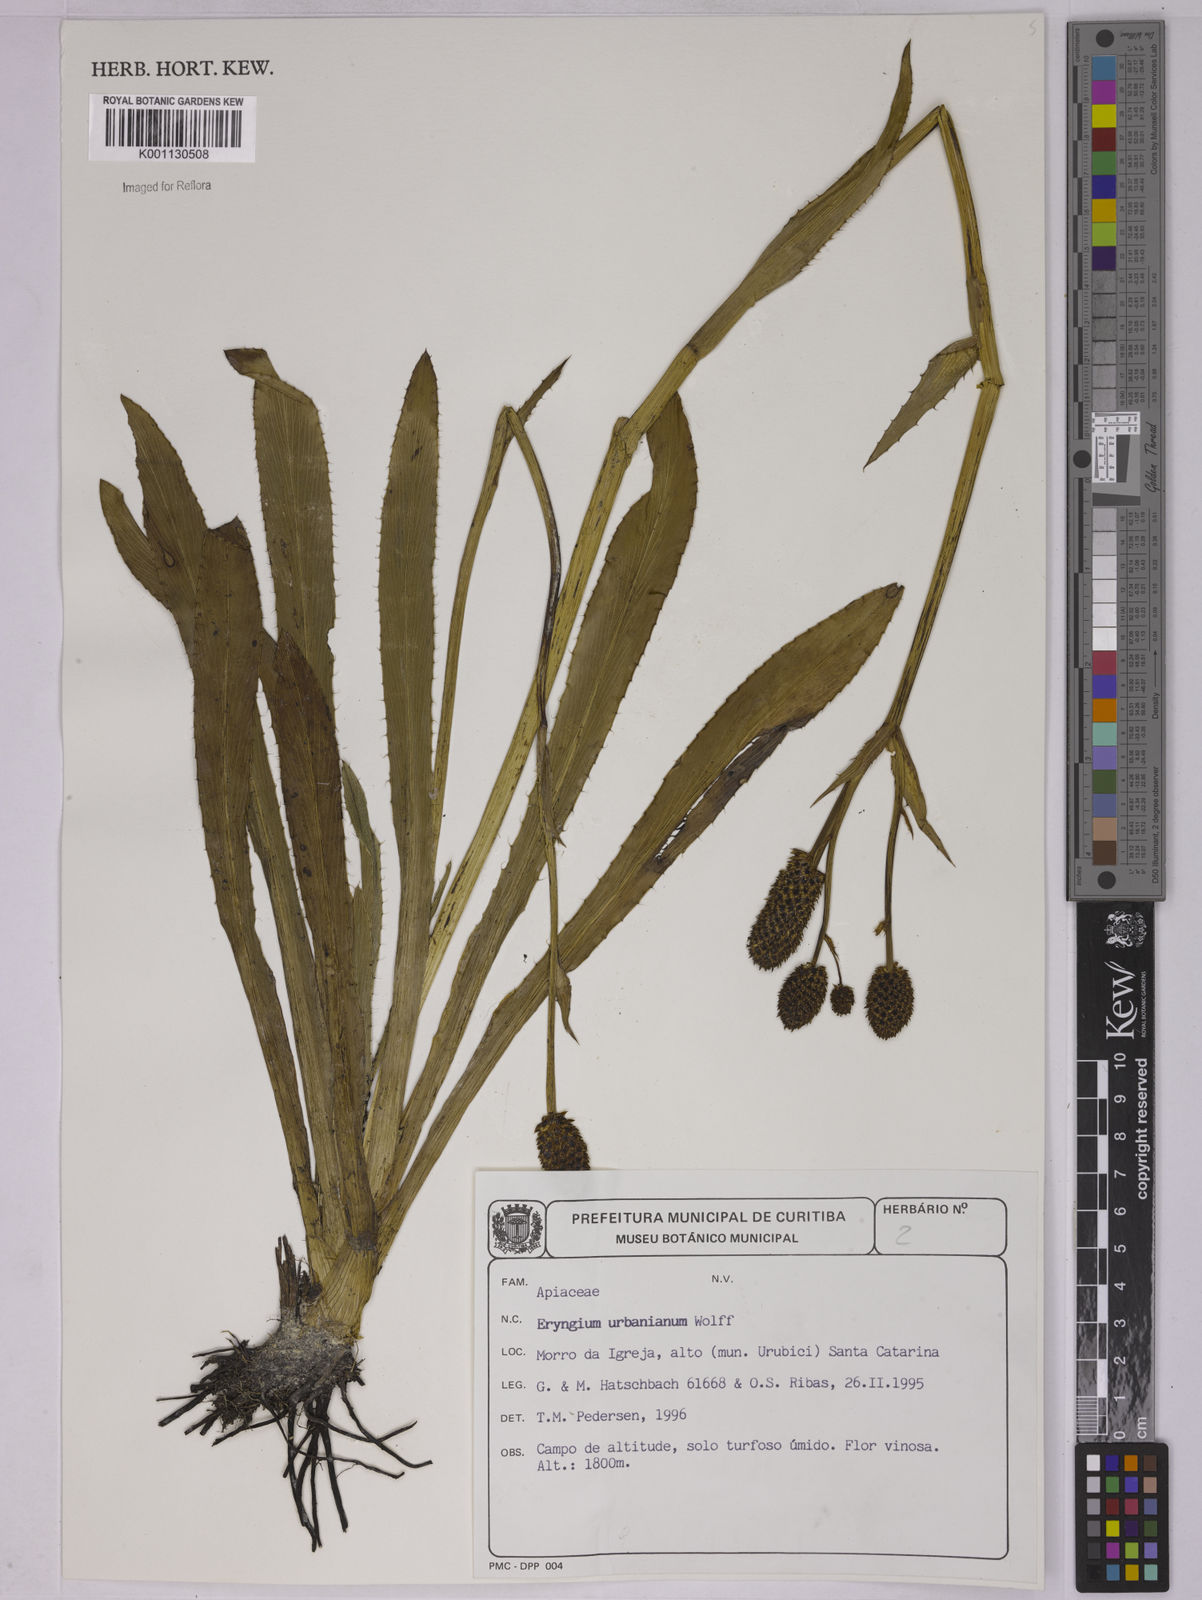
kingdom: Plantae
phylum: Tracheophyta
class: Magnoliopsida
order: Apiales
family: Apiaceae
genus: Eryngium
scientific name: Eryngium urbanianum
